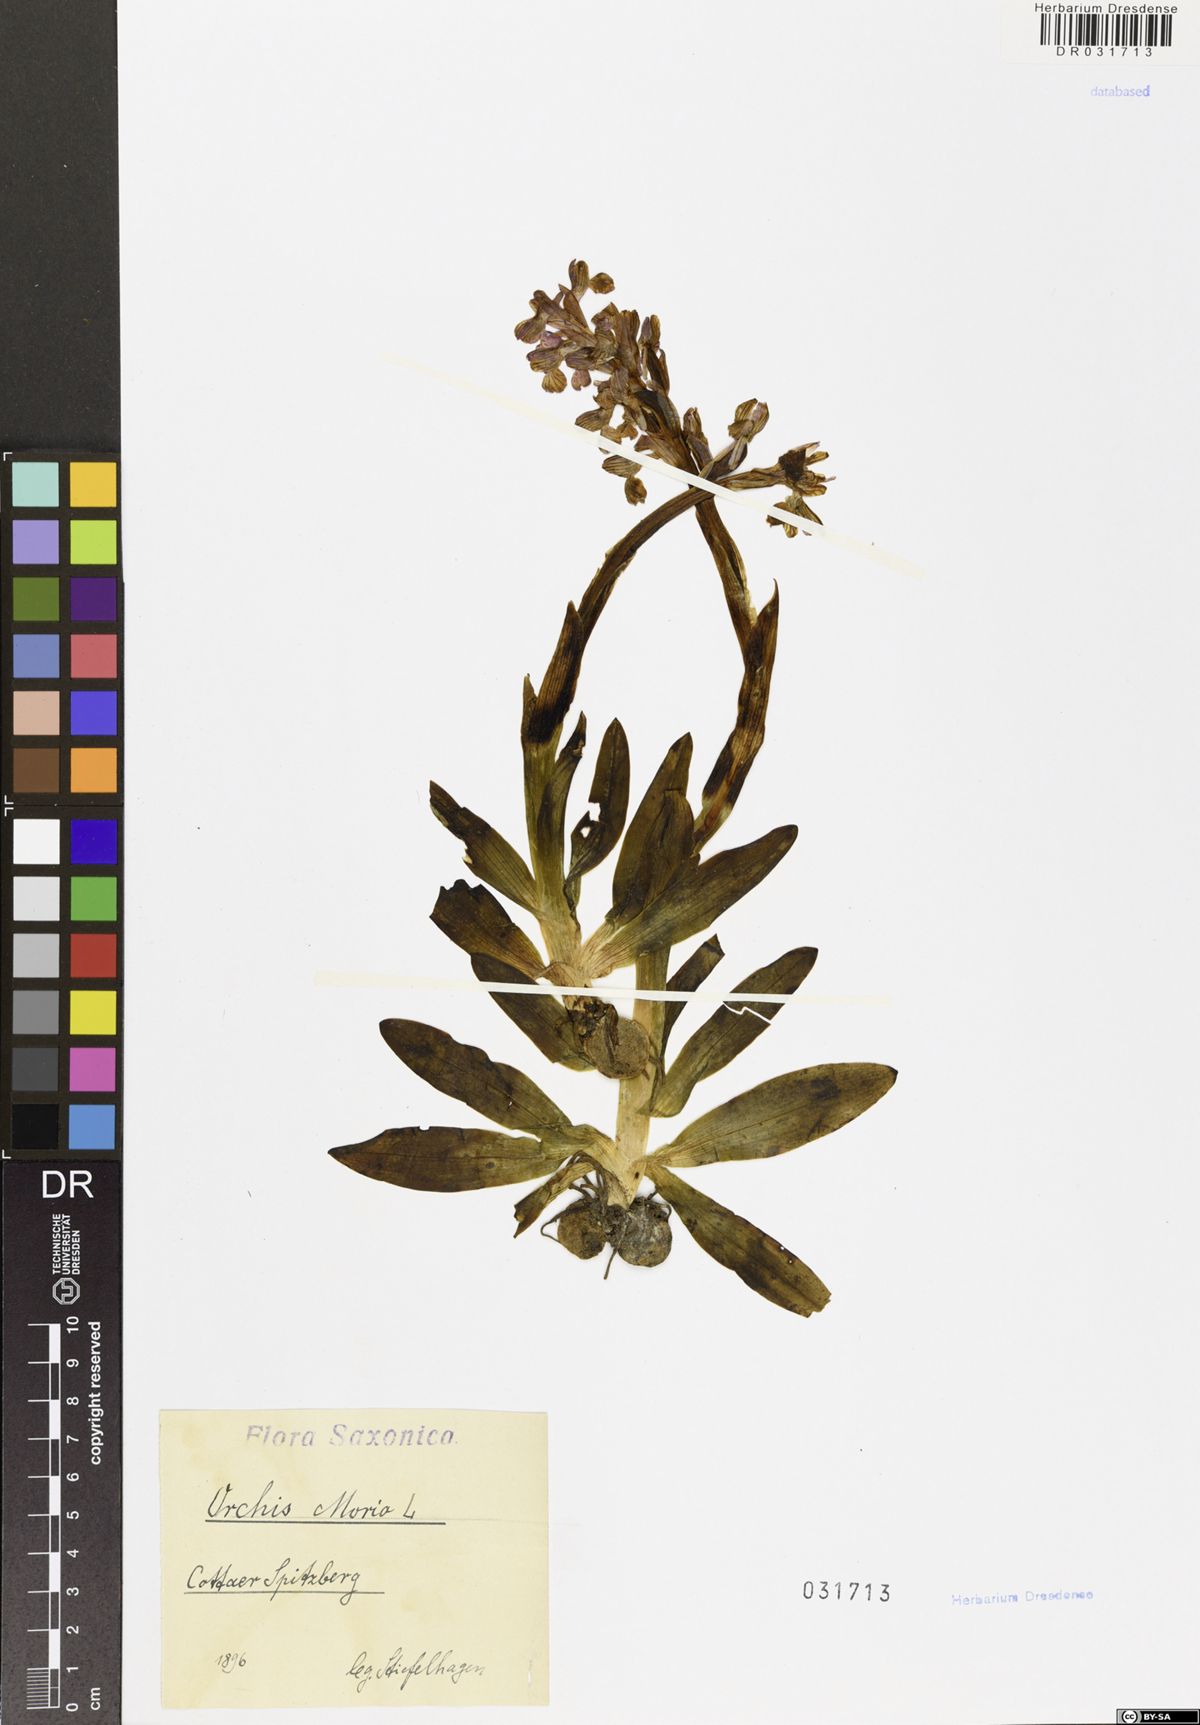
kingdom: Plantae
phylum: Tracheophyta
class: Liliopsida
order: Asparagales
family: Orchidaceae
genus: Anacamptis
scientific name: Anacamptis morio
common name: Green-winged orchid
